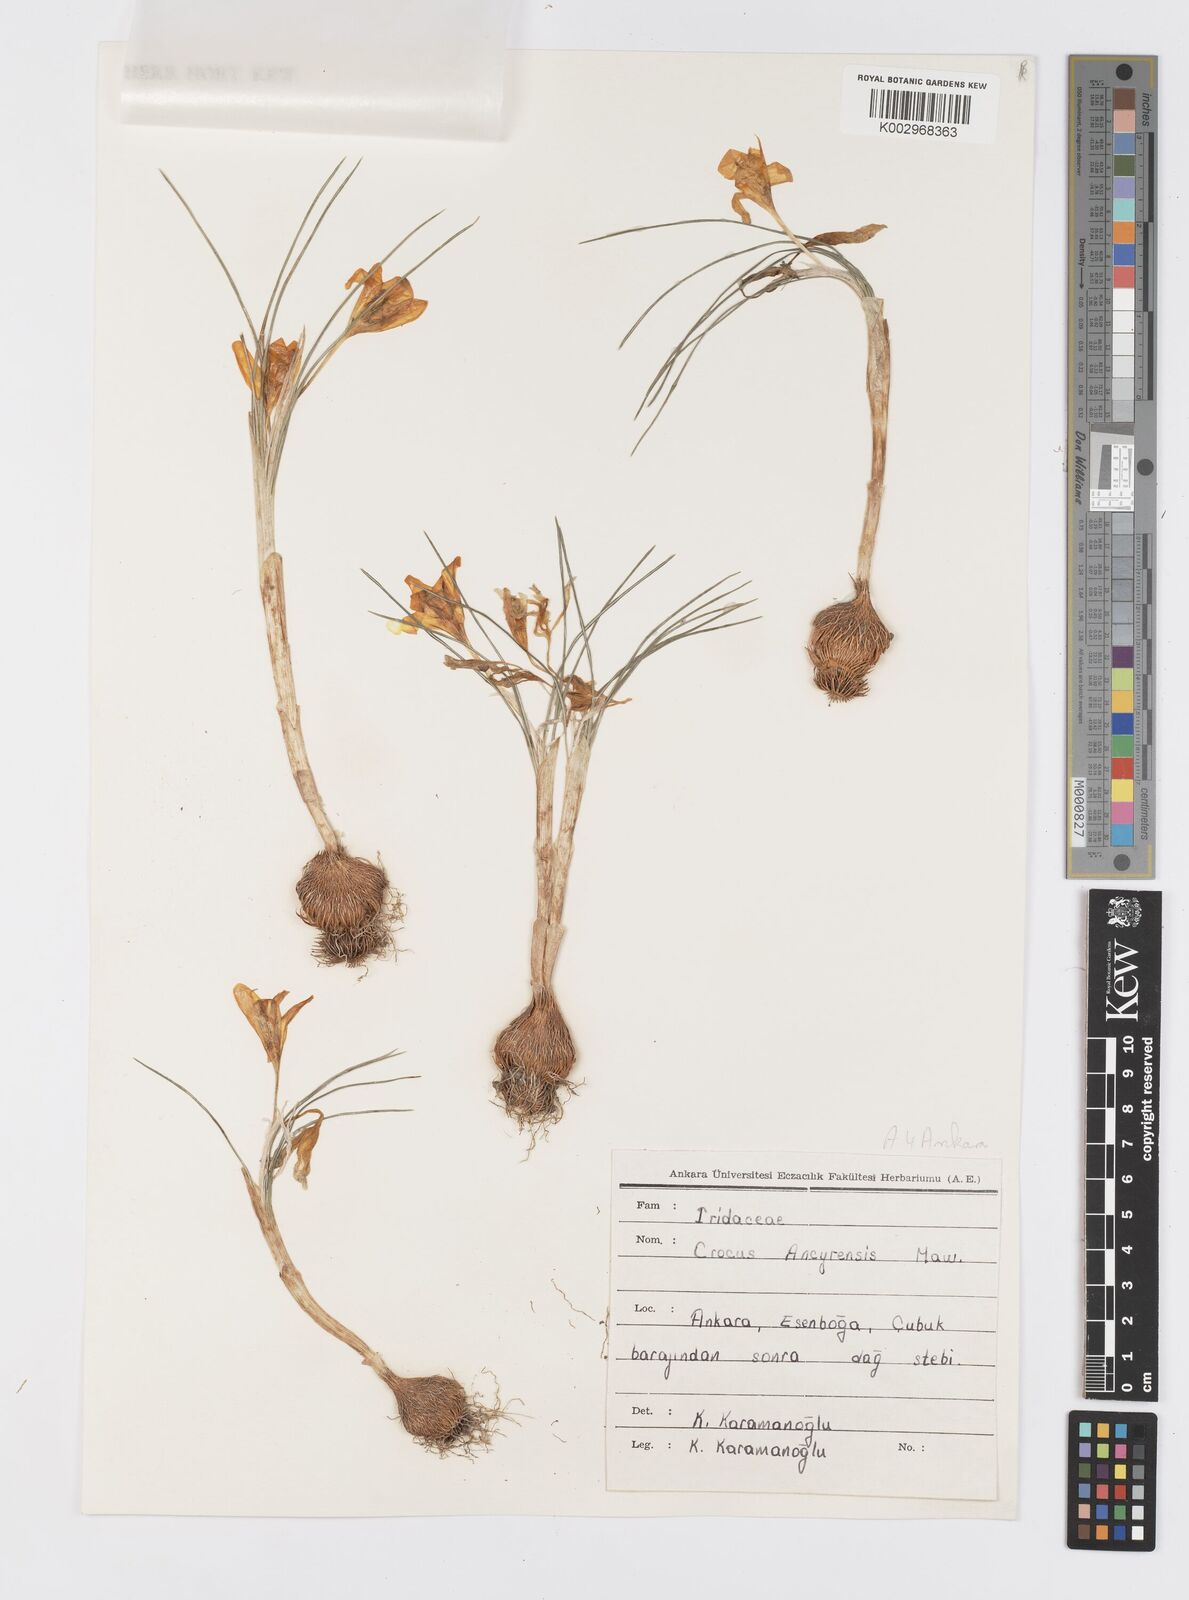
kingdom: Plantae
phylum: Tracheophyta
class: Liliopsida
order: Asparagales
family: Iridaceae
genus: Crocus
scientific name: Crocus ancyrensis
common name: Ankara crocus
